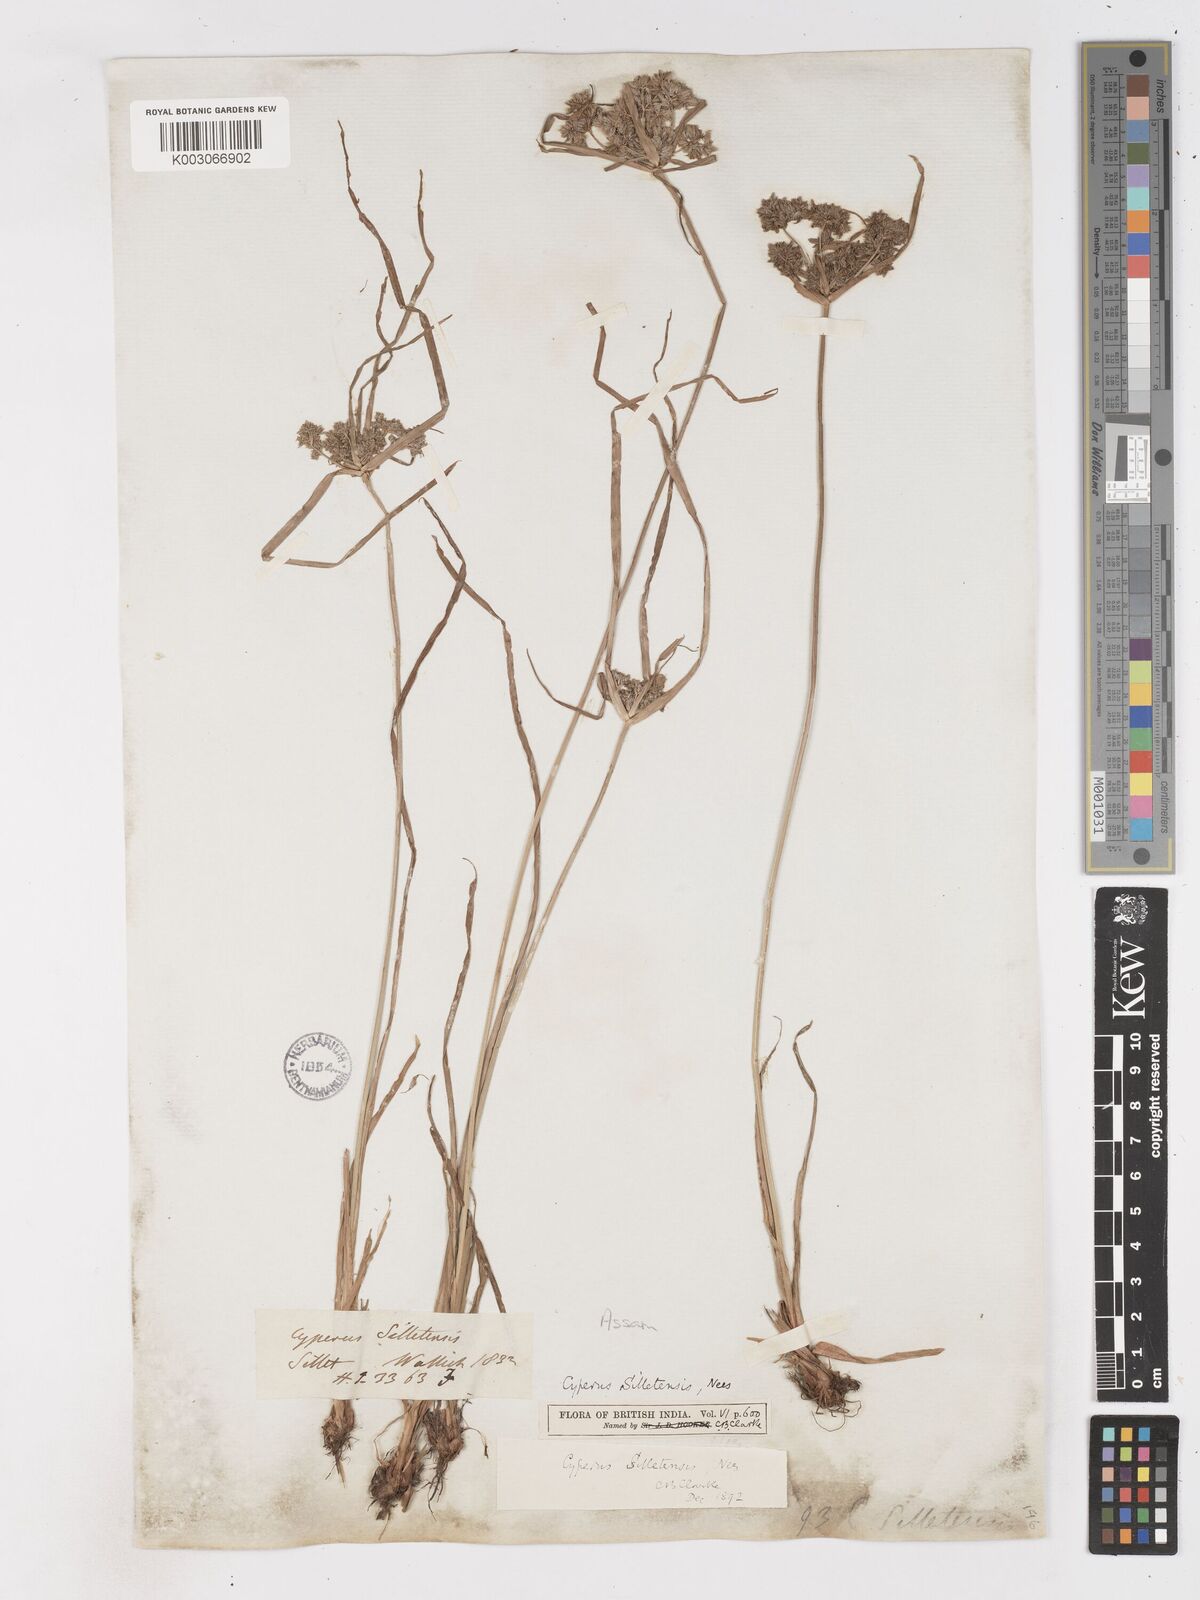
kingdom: Plantae
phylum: Tracheophyta
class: Liliopsida
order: Poales
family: Cyperaceae
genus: Cyperus
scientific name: Cyperus silletensis
